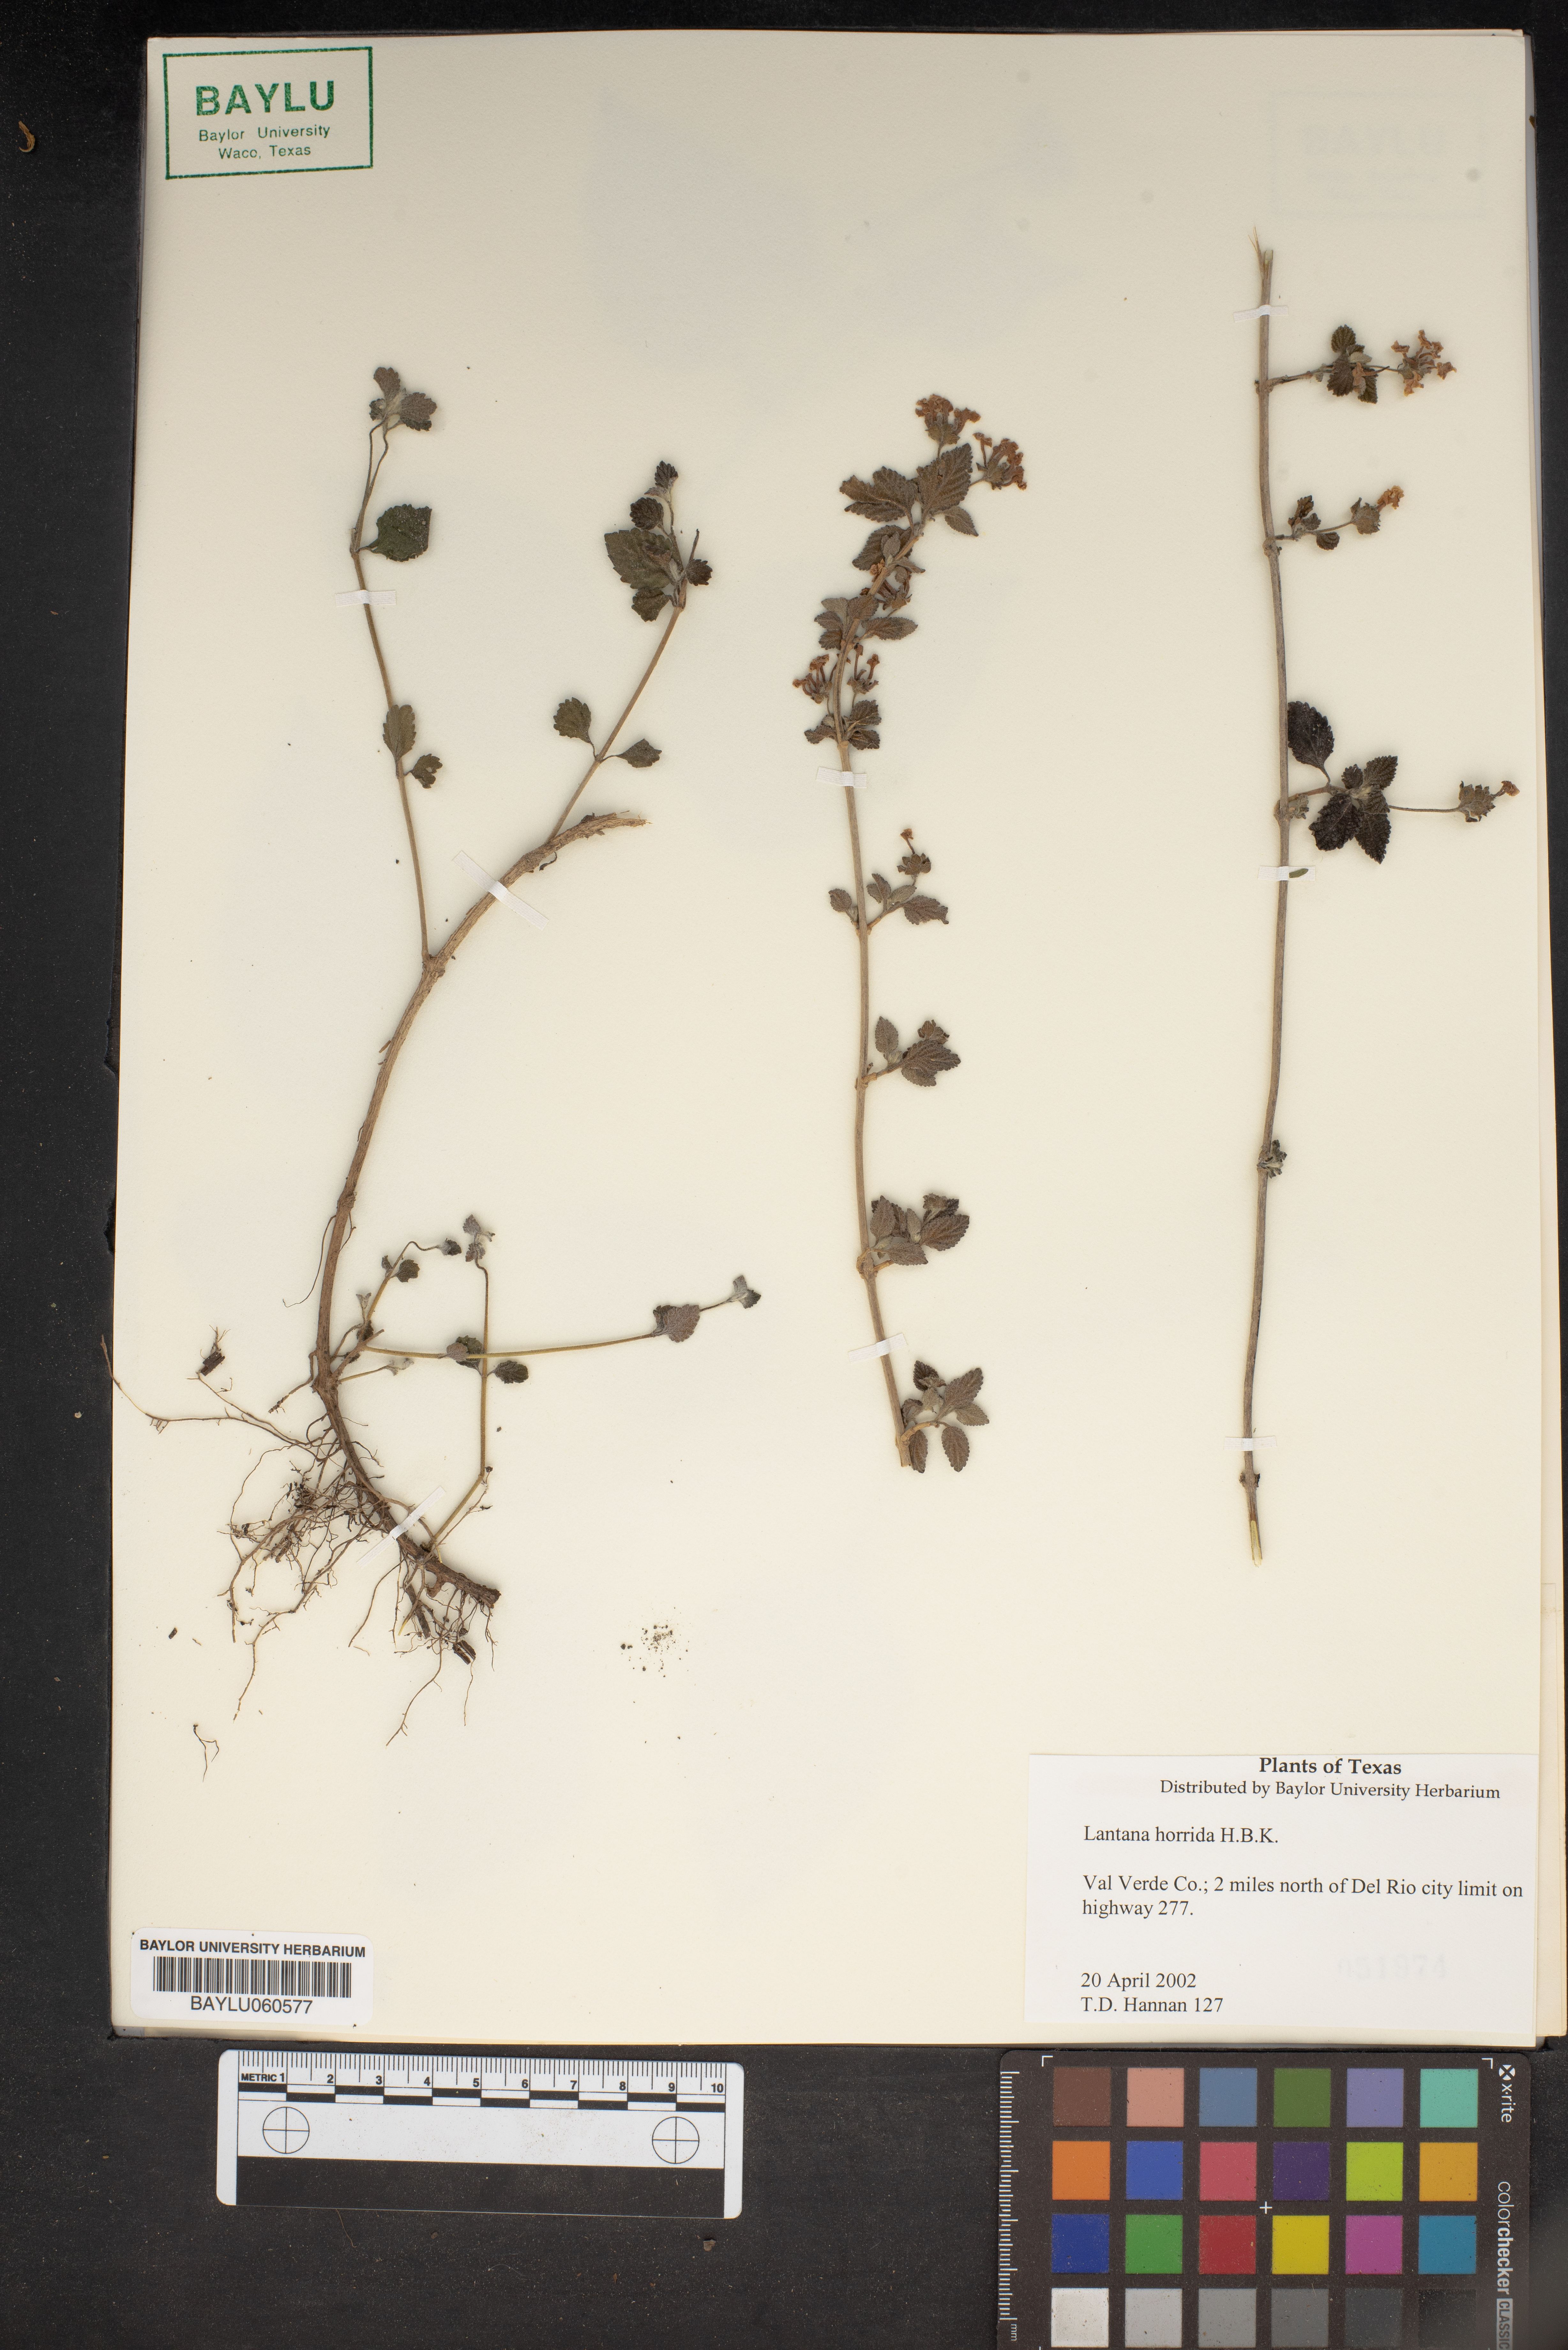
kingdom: Plantae
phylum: Tracheophyta
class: Magnoliopsida
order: Lamiales
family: Verbenaceae
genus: Lantana
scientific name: Lantana horrida
